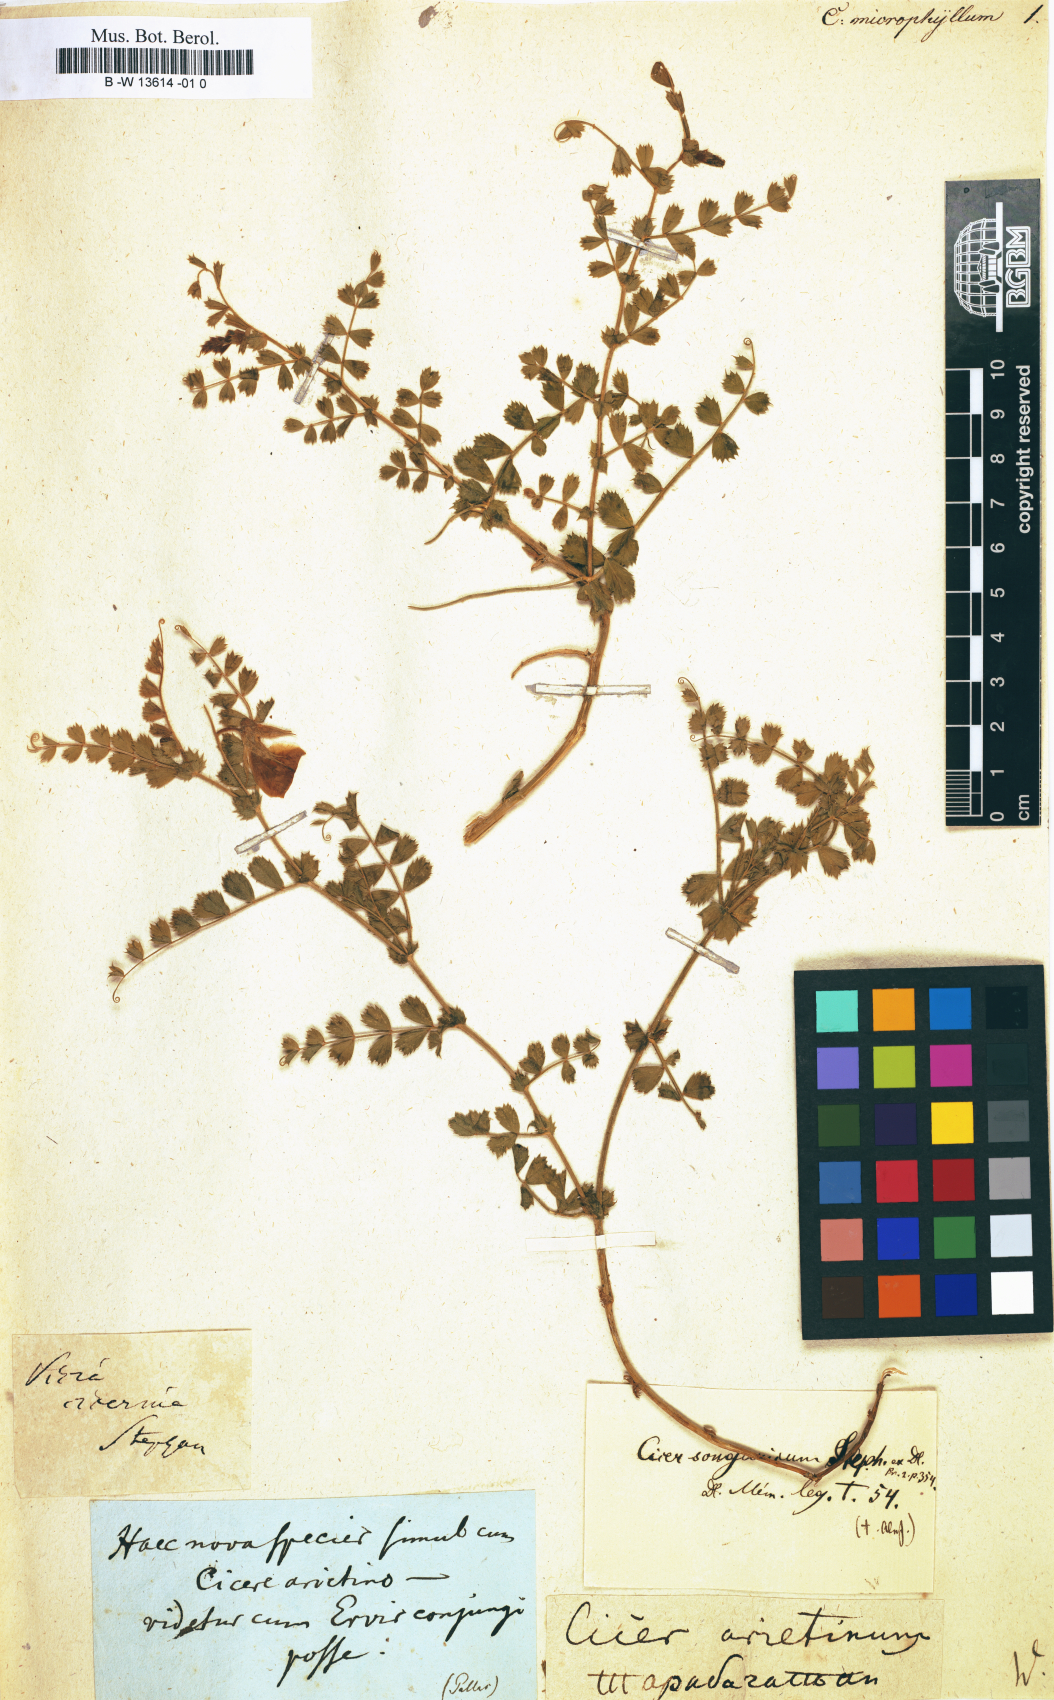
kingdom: Plantae
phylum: Tracheophyta
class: Magnoliopsida
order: Fabales
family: Fabaceae
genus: Cicer
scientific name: Cicer microphyllum
